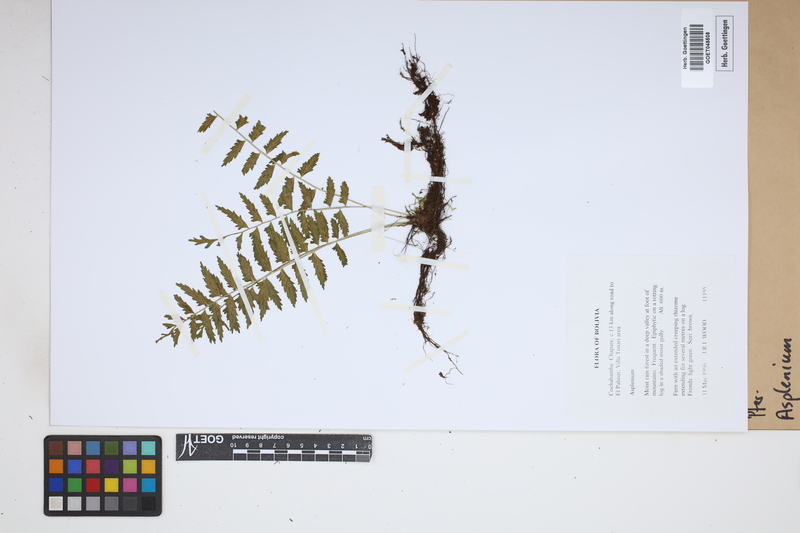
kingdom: Plantae
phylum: Tracheophyta
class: Polypodiopsida
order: Polypodiales
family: Aspleniaceae
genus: Asplenium
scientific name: Asplenium
